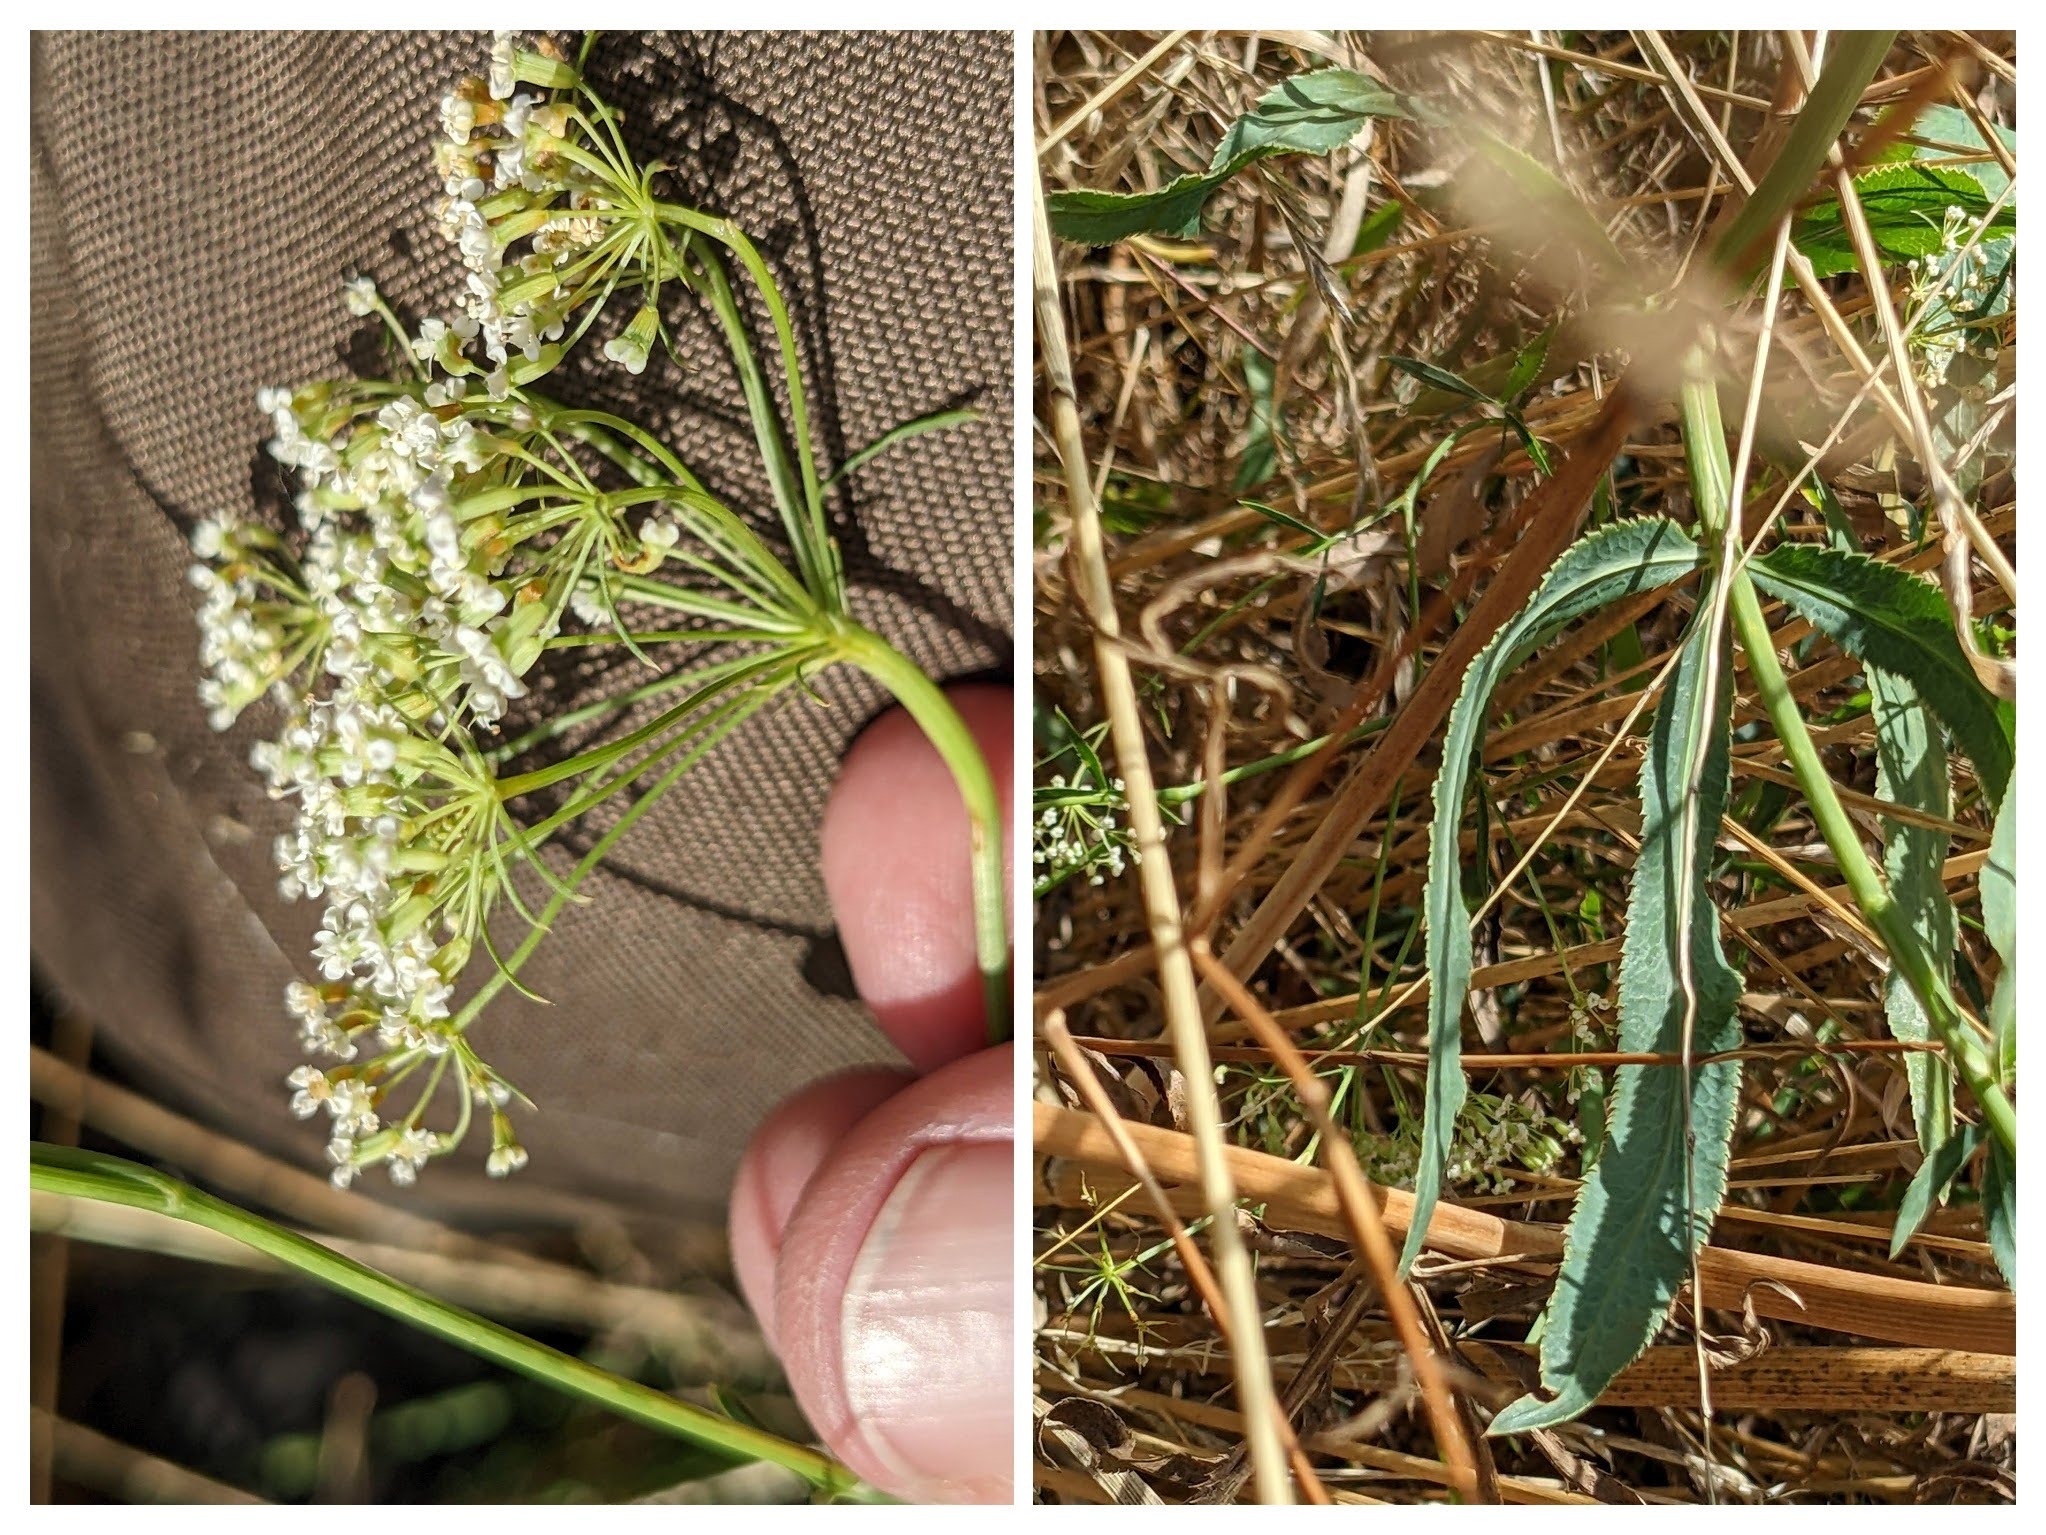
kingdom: Plantae
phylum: Tracheophyta
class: Magnoliopsida
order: Apiales
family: Apiaceae
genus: Falcaria
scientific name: Falcaria vulgaris
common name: Seglblad
